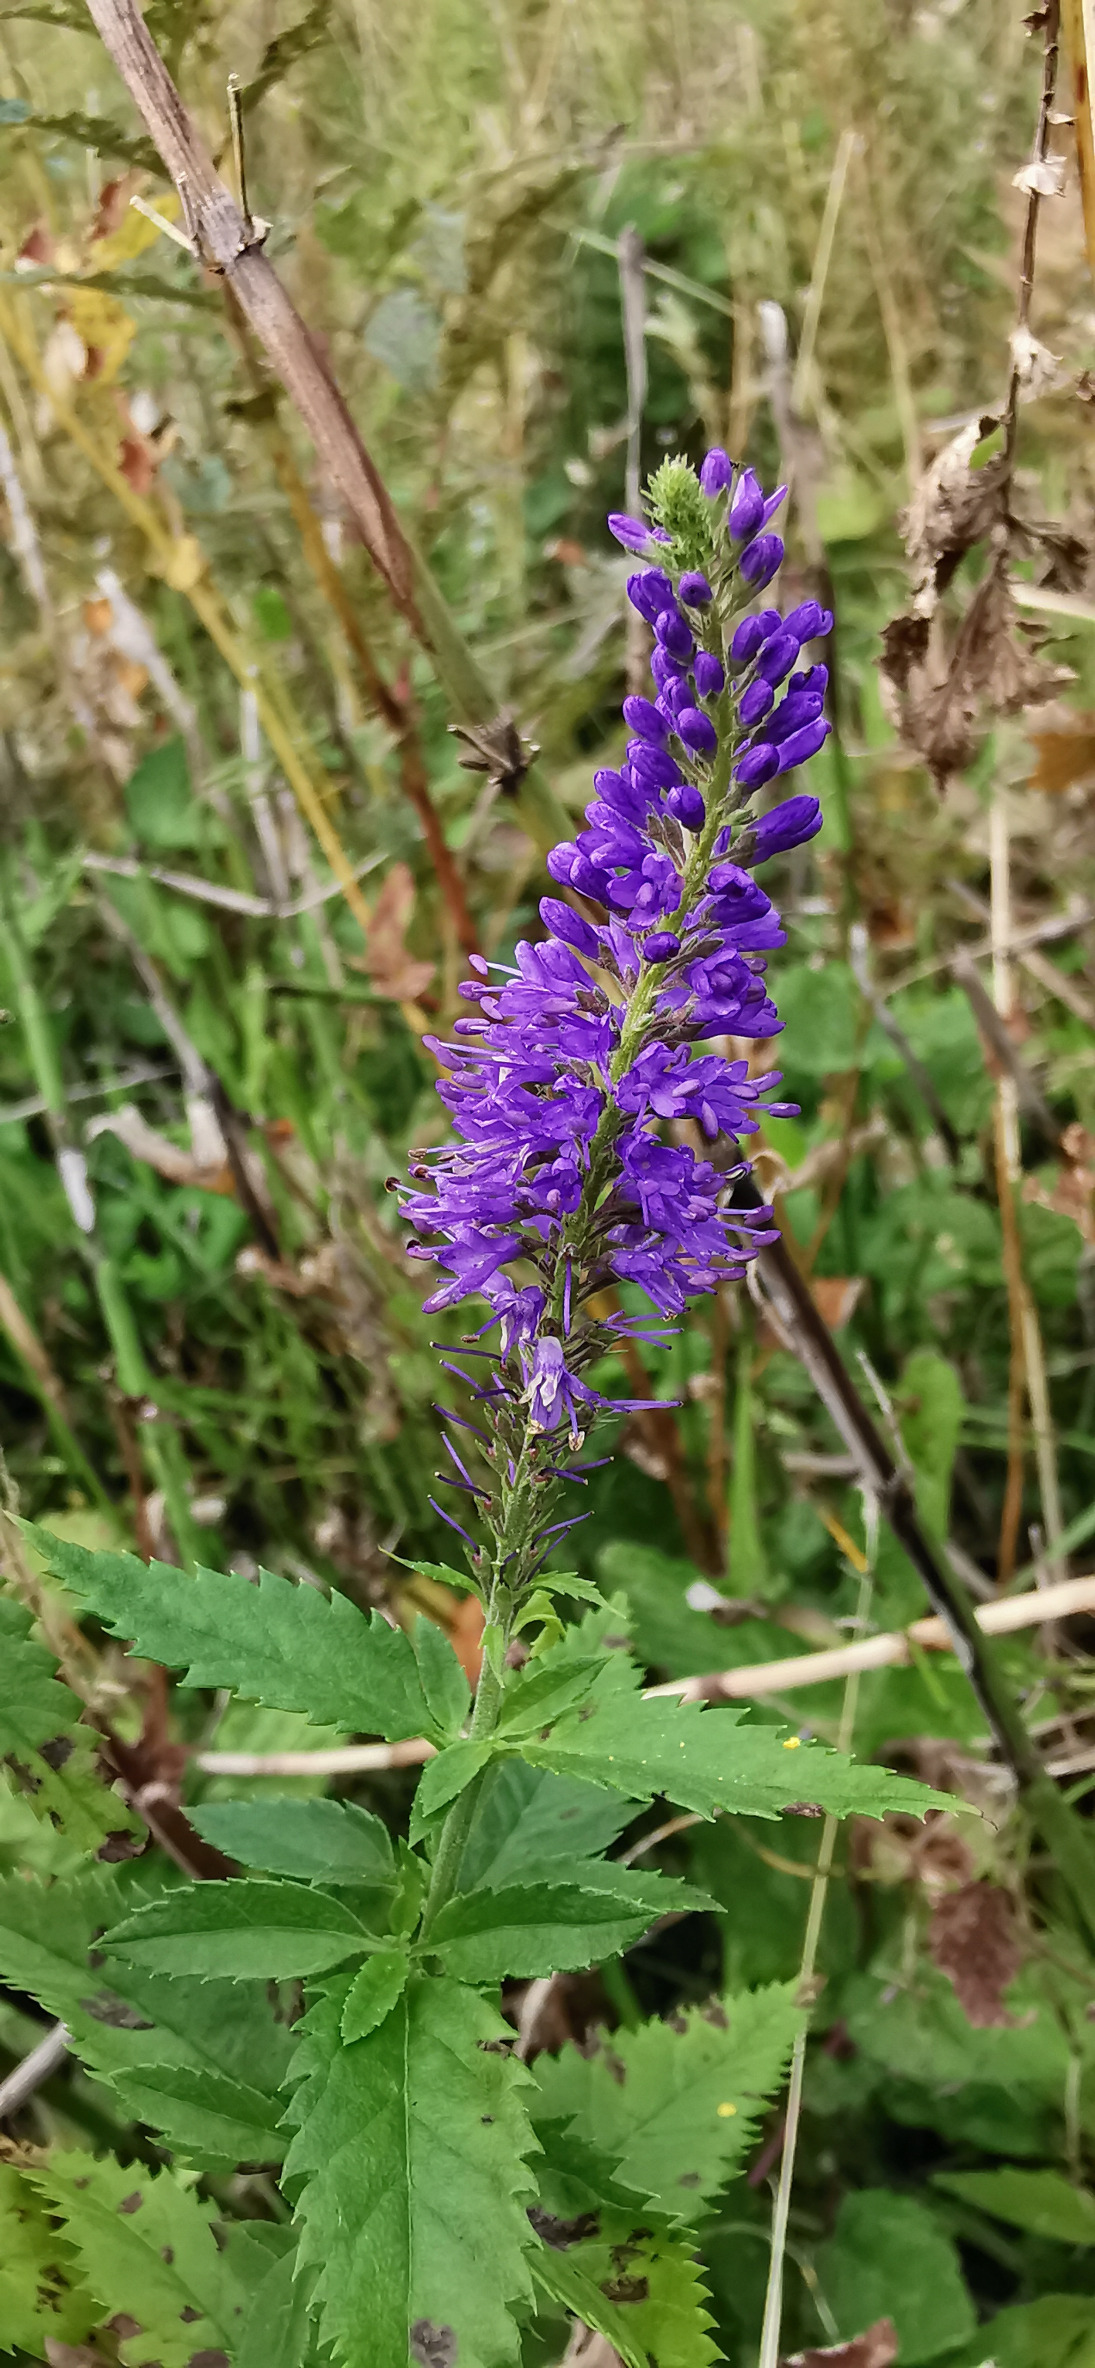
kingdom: Plantae
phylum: Tracheophyta
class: Magnoliopsida
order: Lamiales
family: Plantaginaceae
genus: Veronica
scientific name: Veronica longifolia
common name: Langbladet ærenpris
